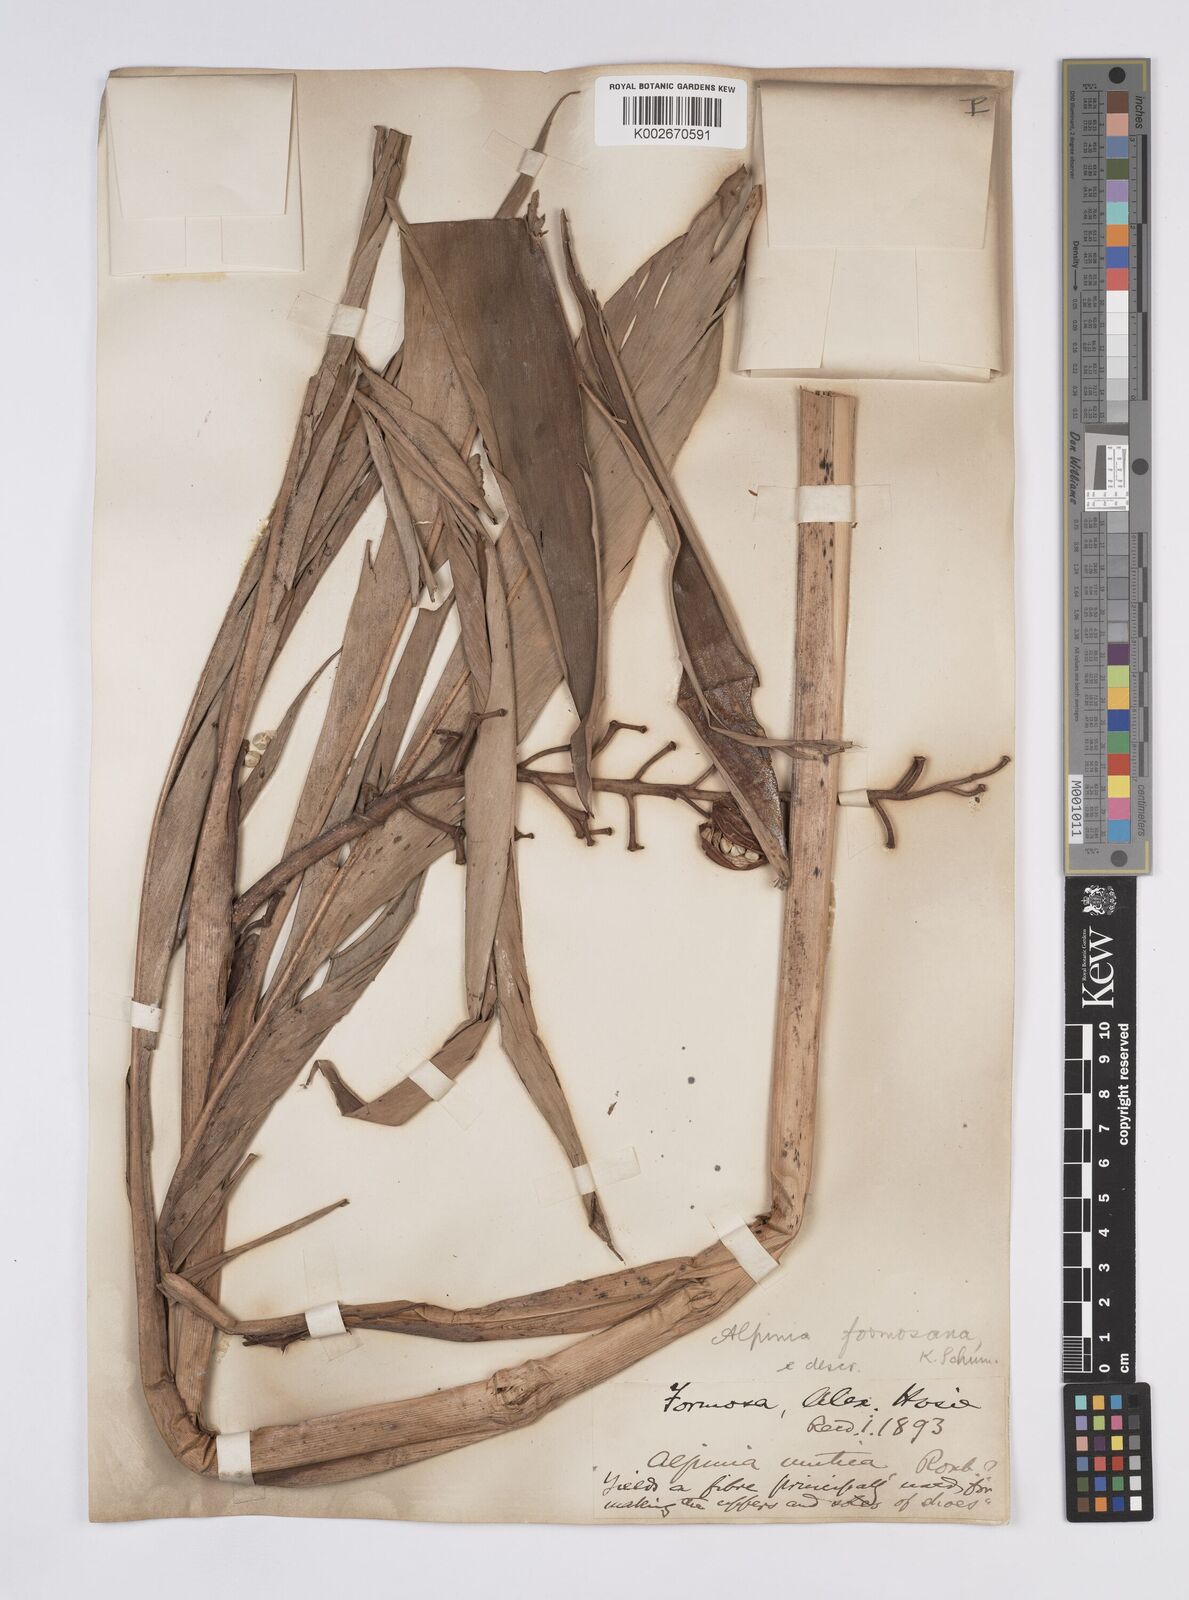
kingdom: Plantae
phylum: Tracheophyta
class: Liliopsida
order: Zingiberales
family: Zingiberaceae
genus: Alpinia
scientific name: Alpinia formosana
